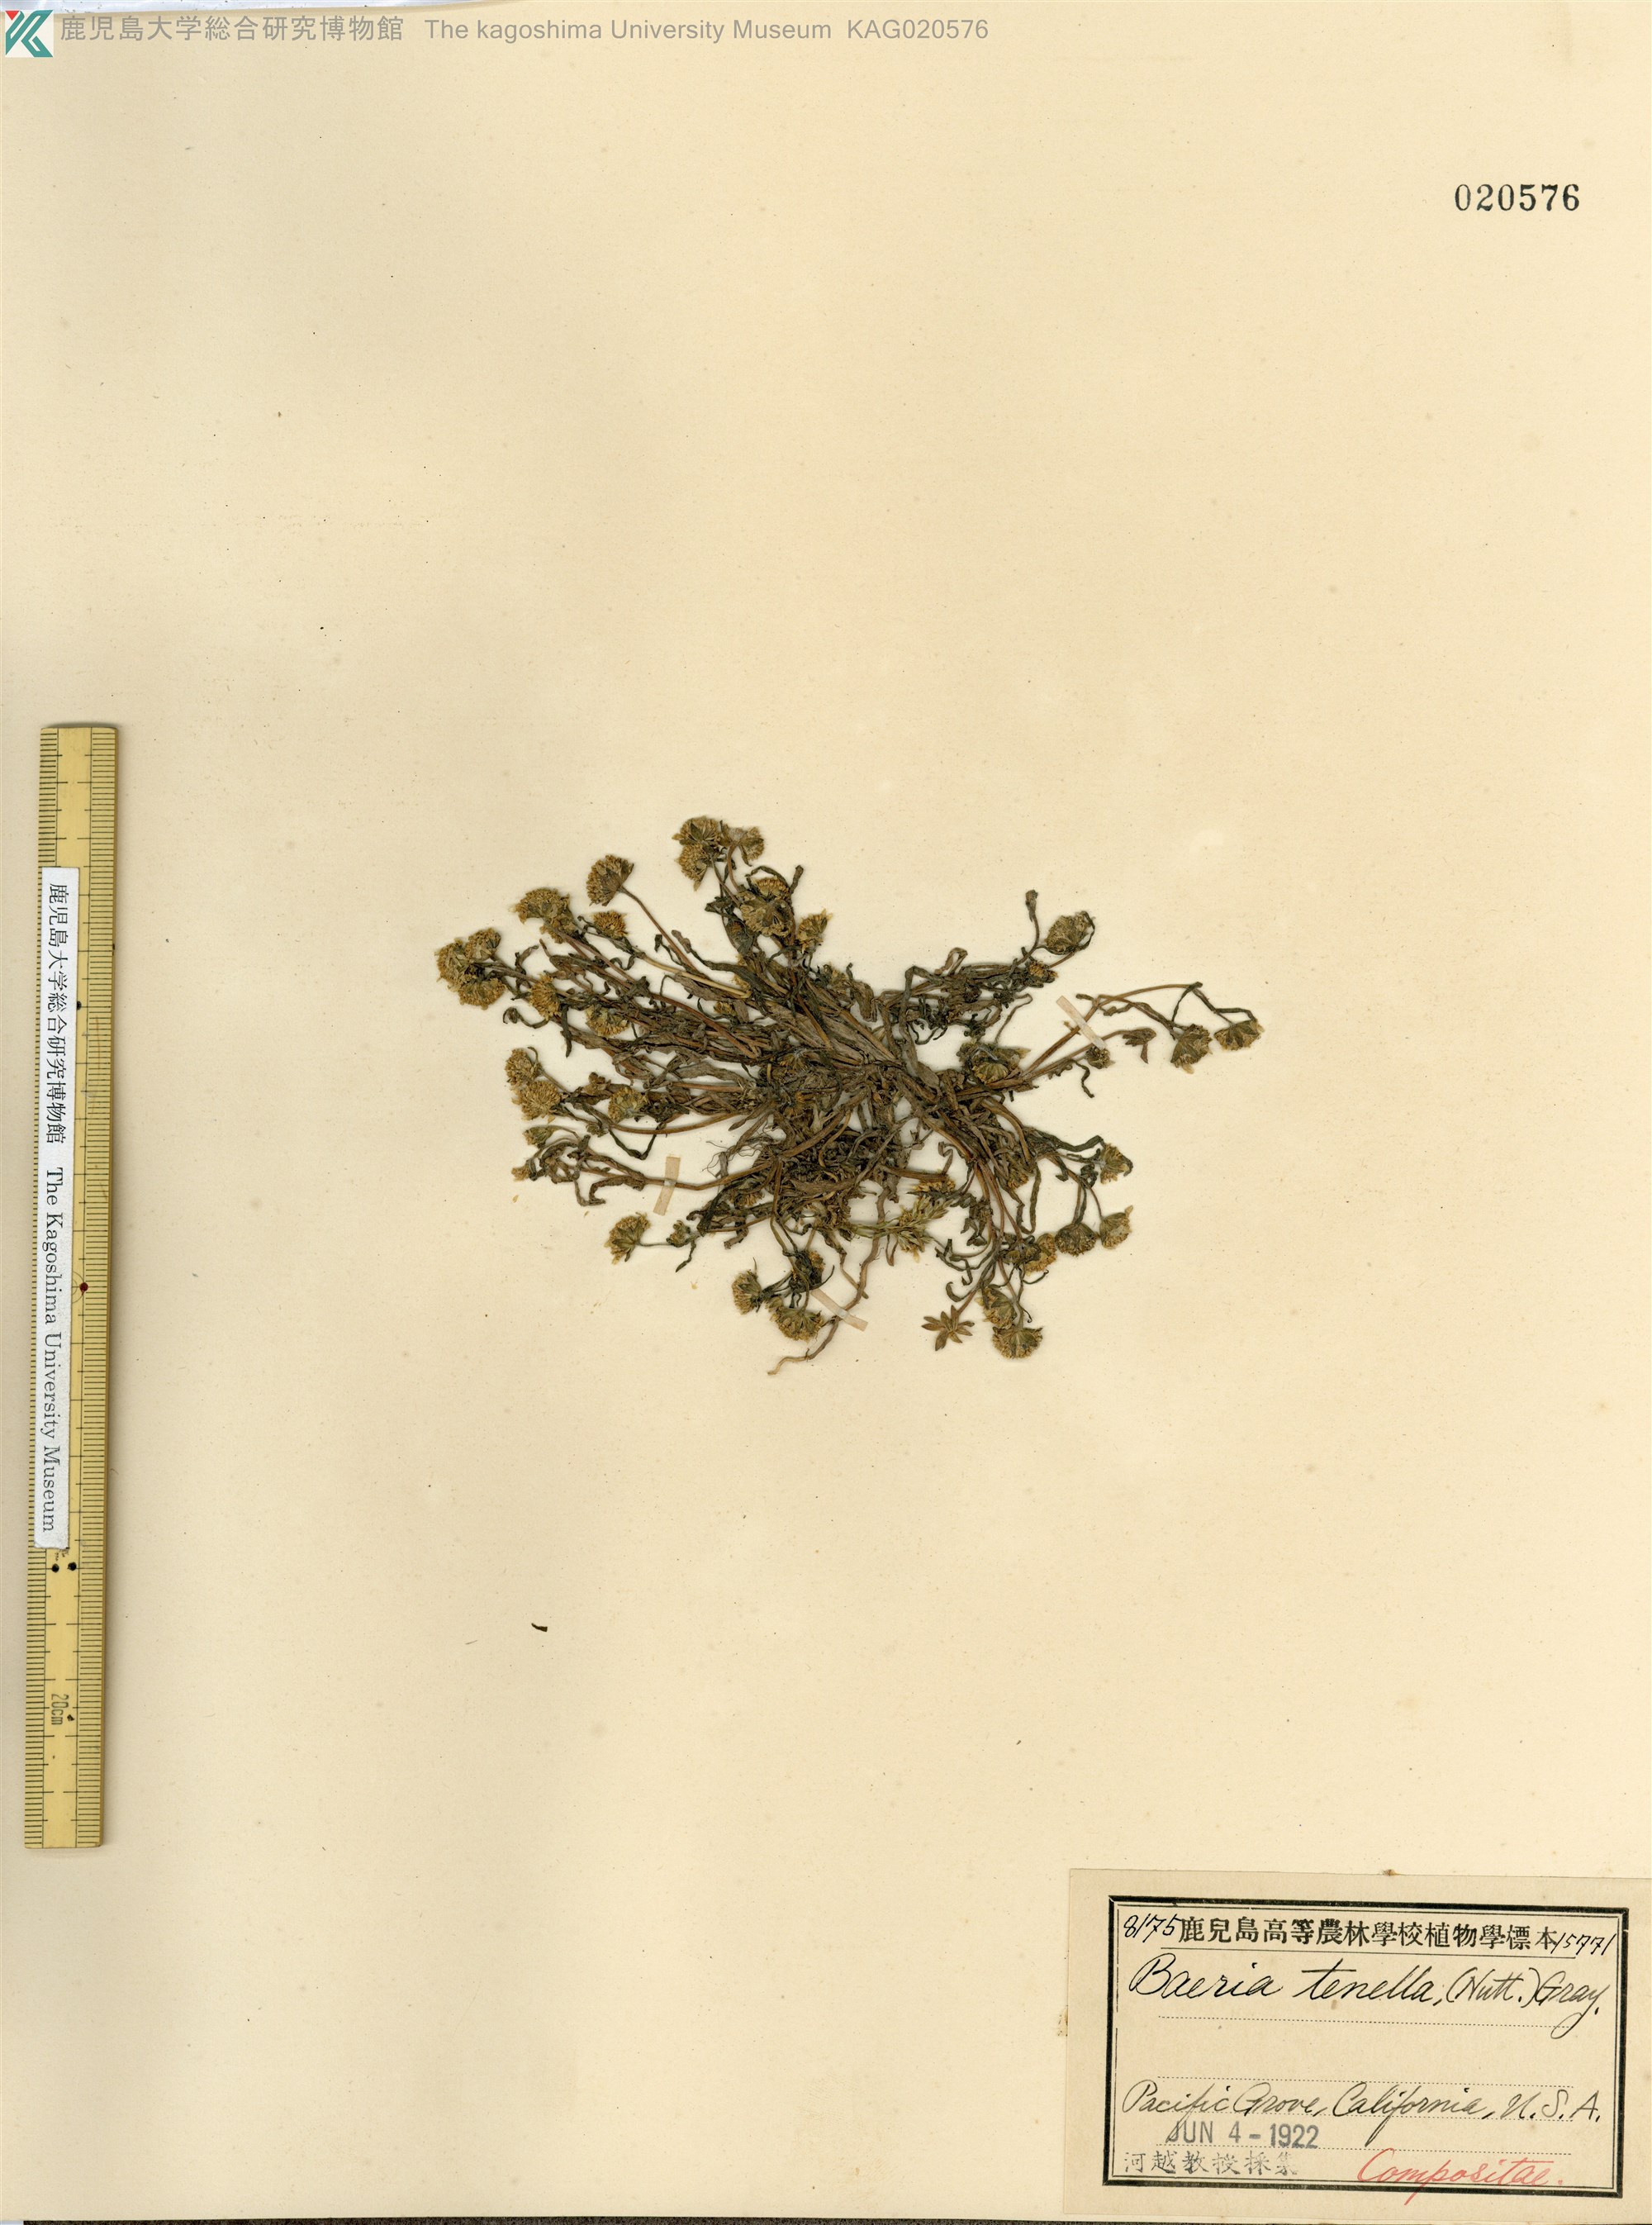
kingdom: Plantae
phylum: Tracheophyta
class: Magnoliopsida
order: Asterales
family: Asteraceae
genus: Lasthenia
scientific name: Lasthenia coronaria
